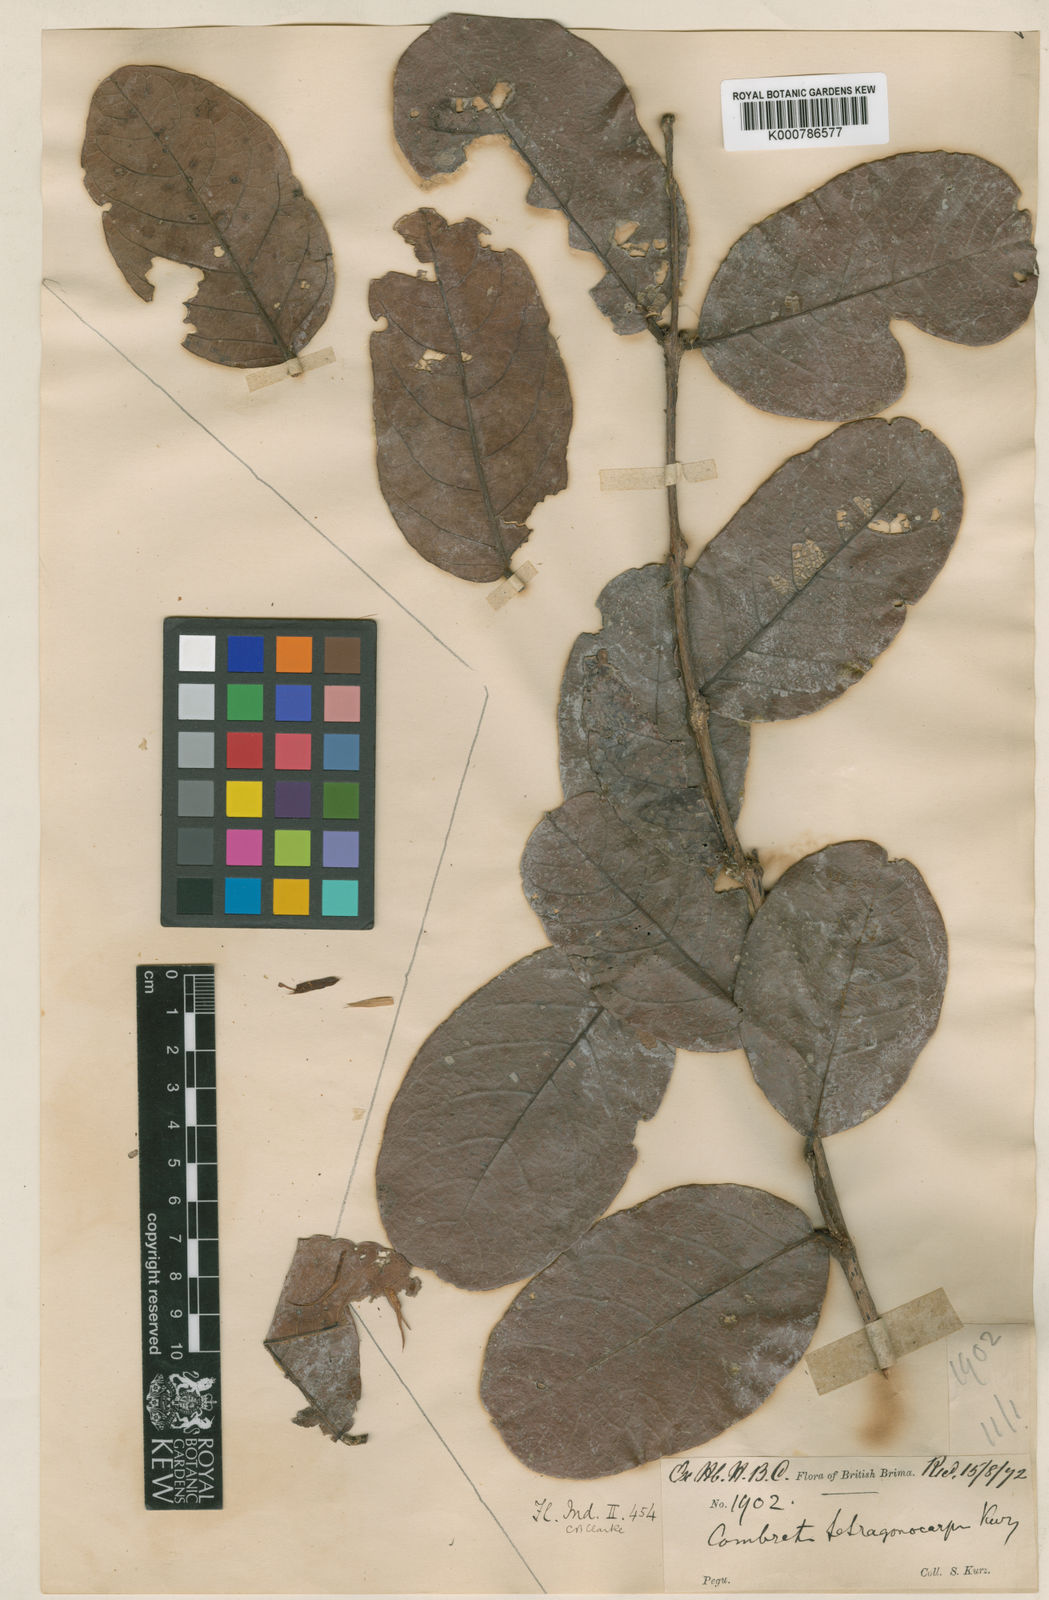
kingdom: Plantae
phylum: Tracheophyta
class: Magnoliopsida
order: Myrtales
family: Combretaceae
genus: Combretum
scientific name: Combretum tetragonocarpum
